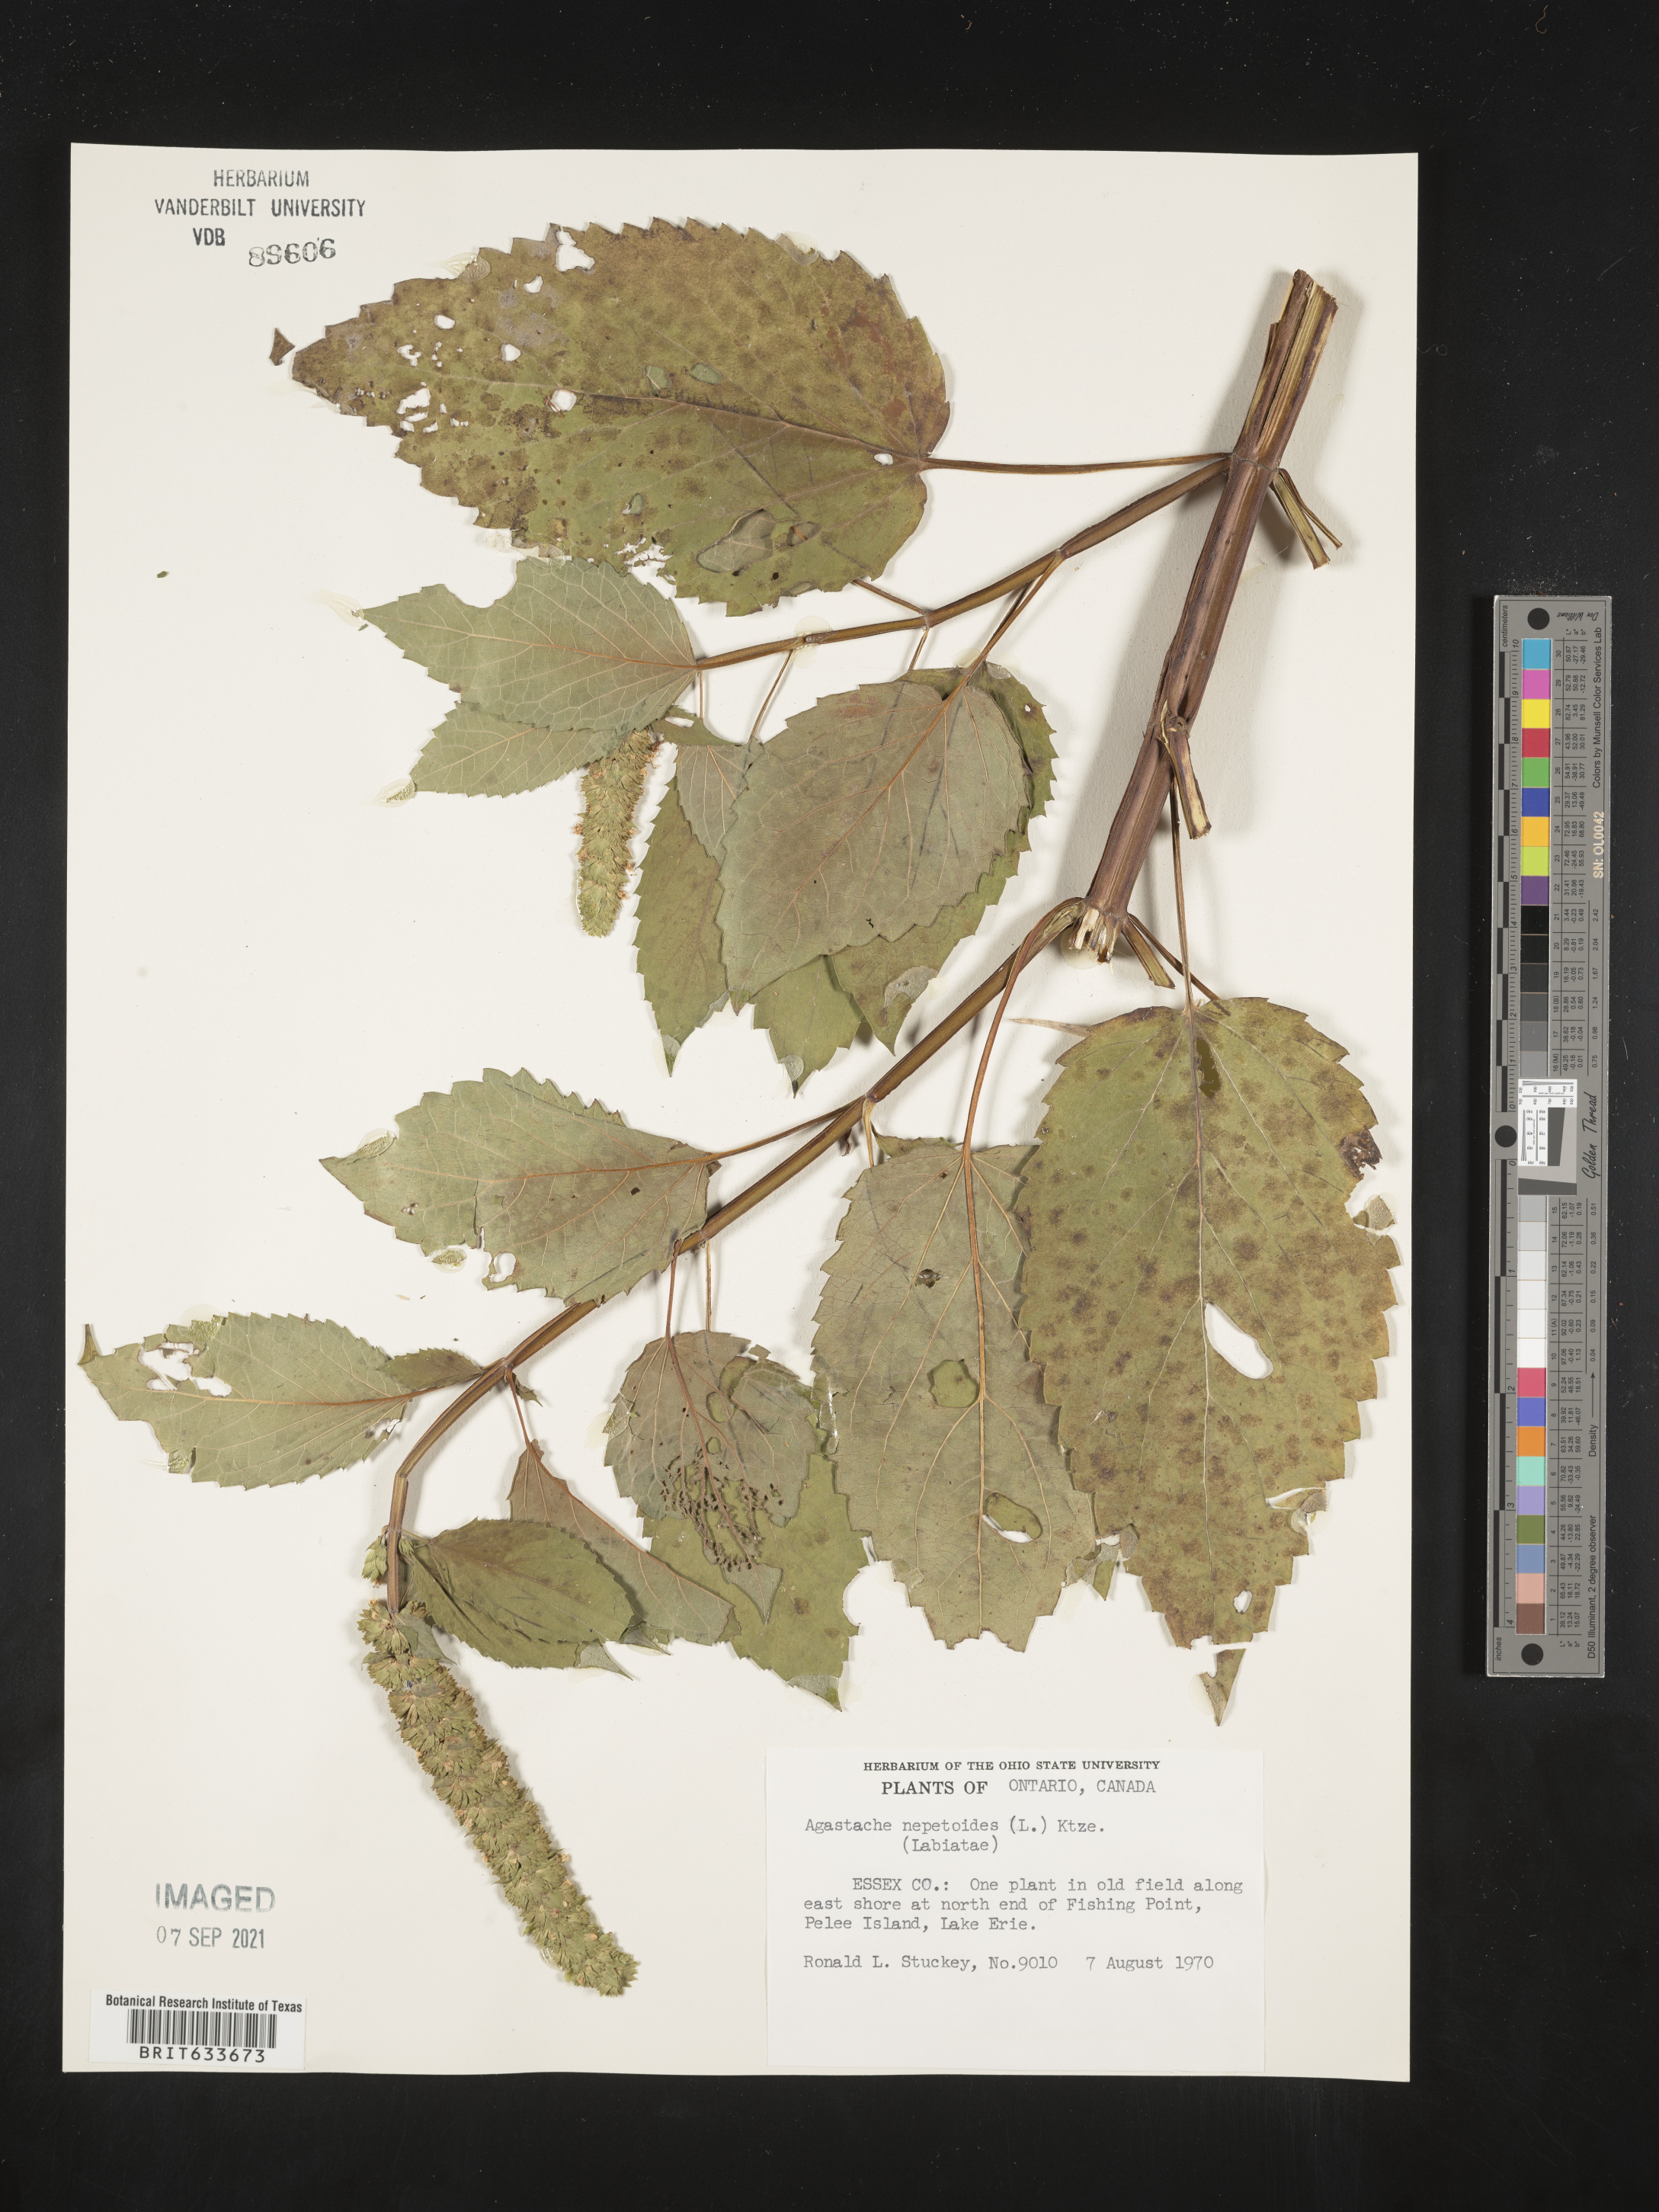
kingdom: Plantae
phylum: Tracheophyta
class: Magnoliopsida
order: Lamiales
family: Lamiaceae
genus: Agastache
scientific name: Agastache
